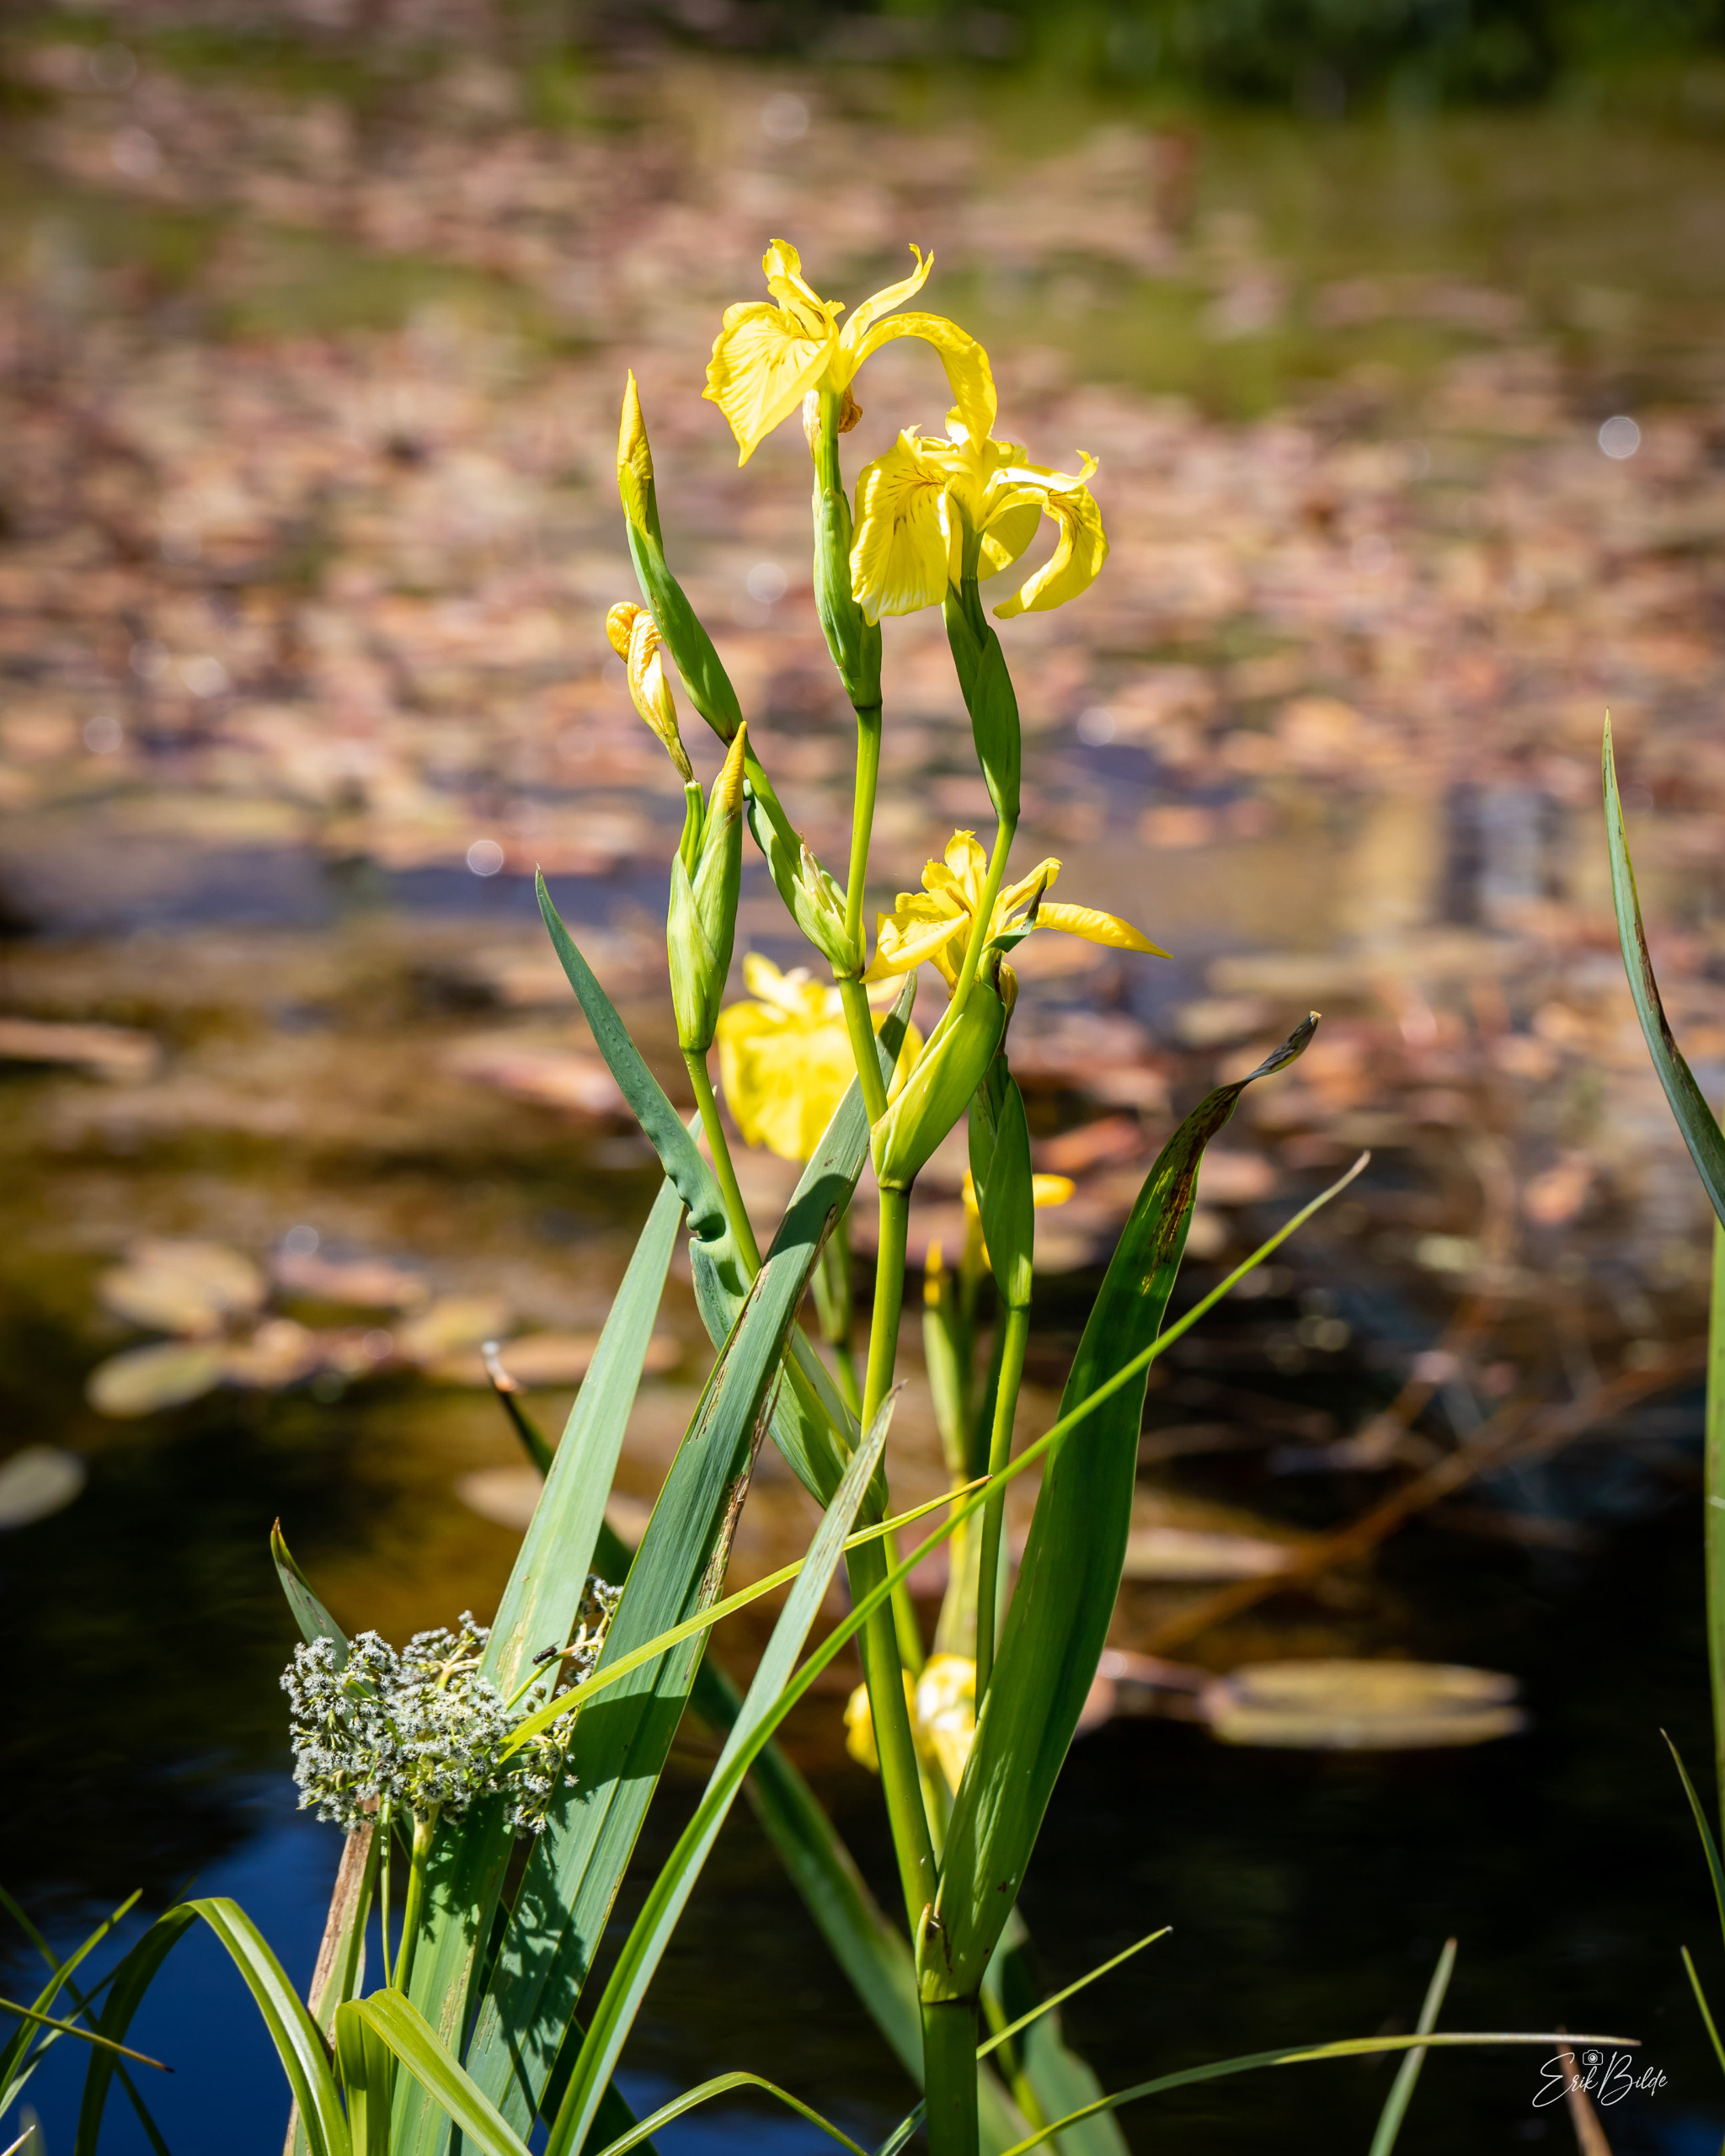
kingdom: Plantae
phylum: Tracheophyta
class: Liliopsida
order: Asparagales
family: Iridaceae
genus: Iris
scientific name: Iris pseudacorus
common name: Gul iris
